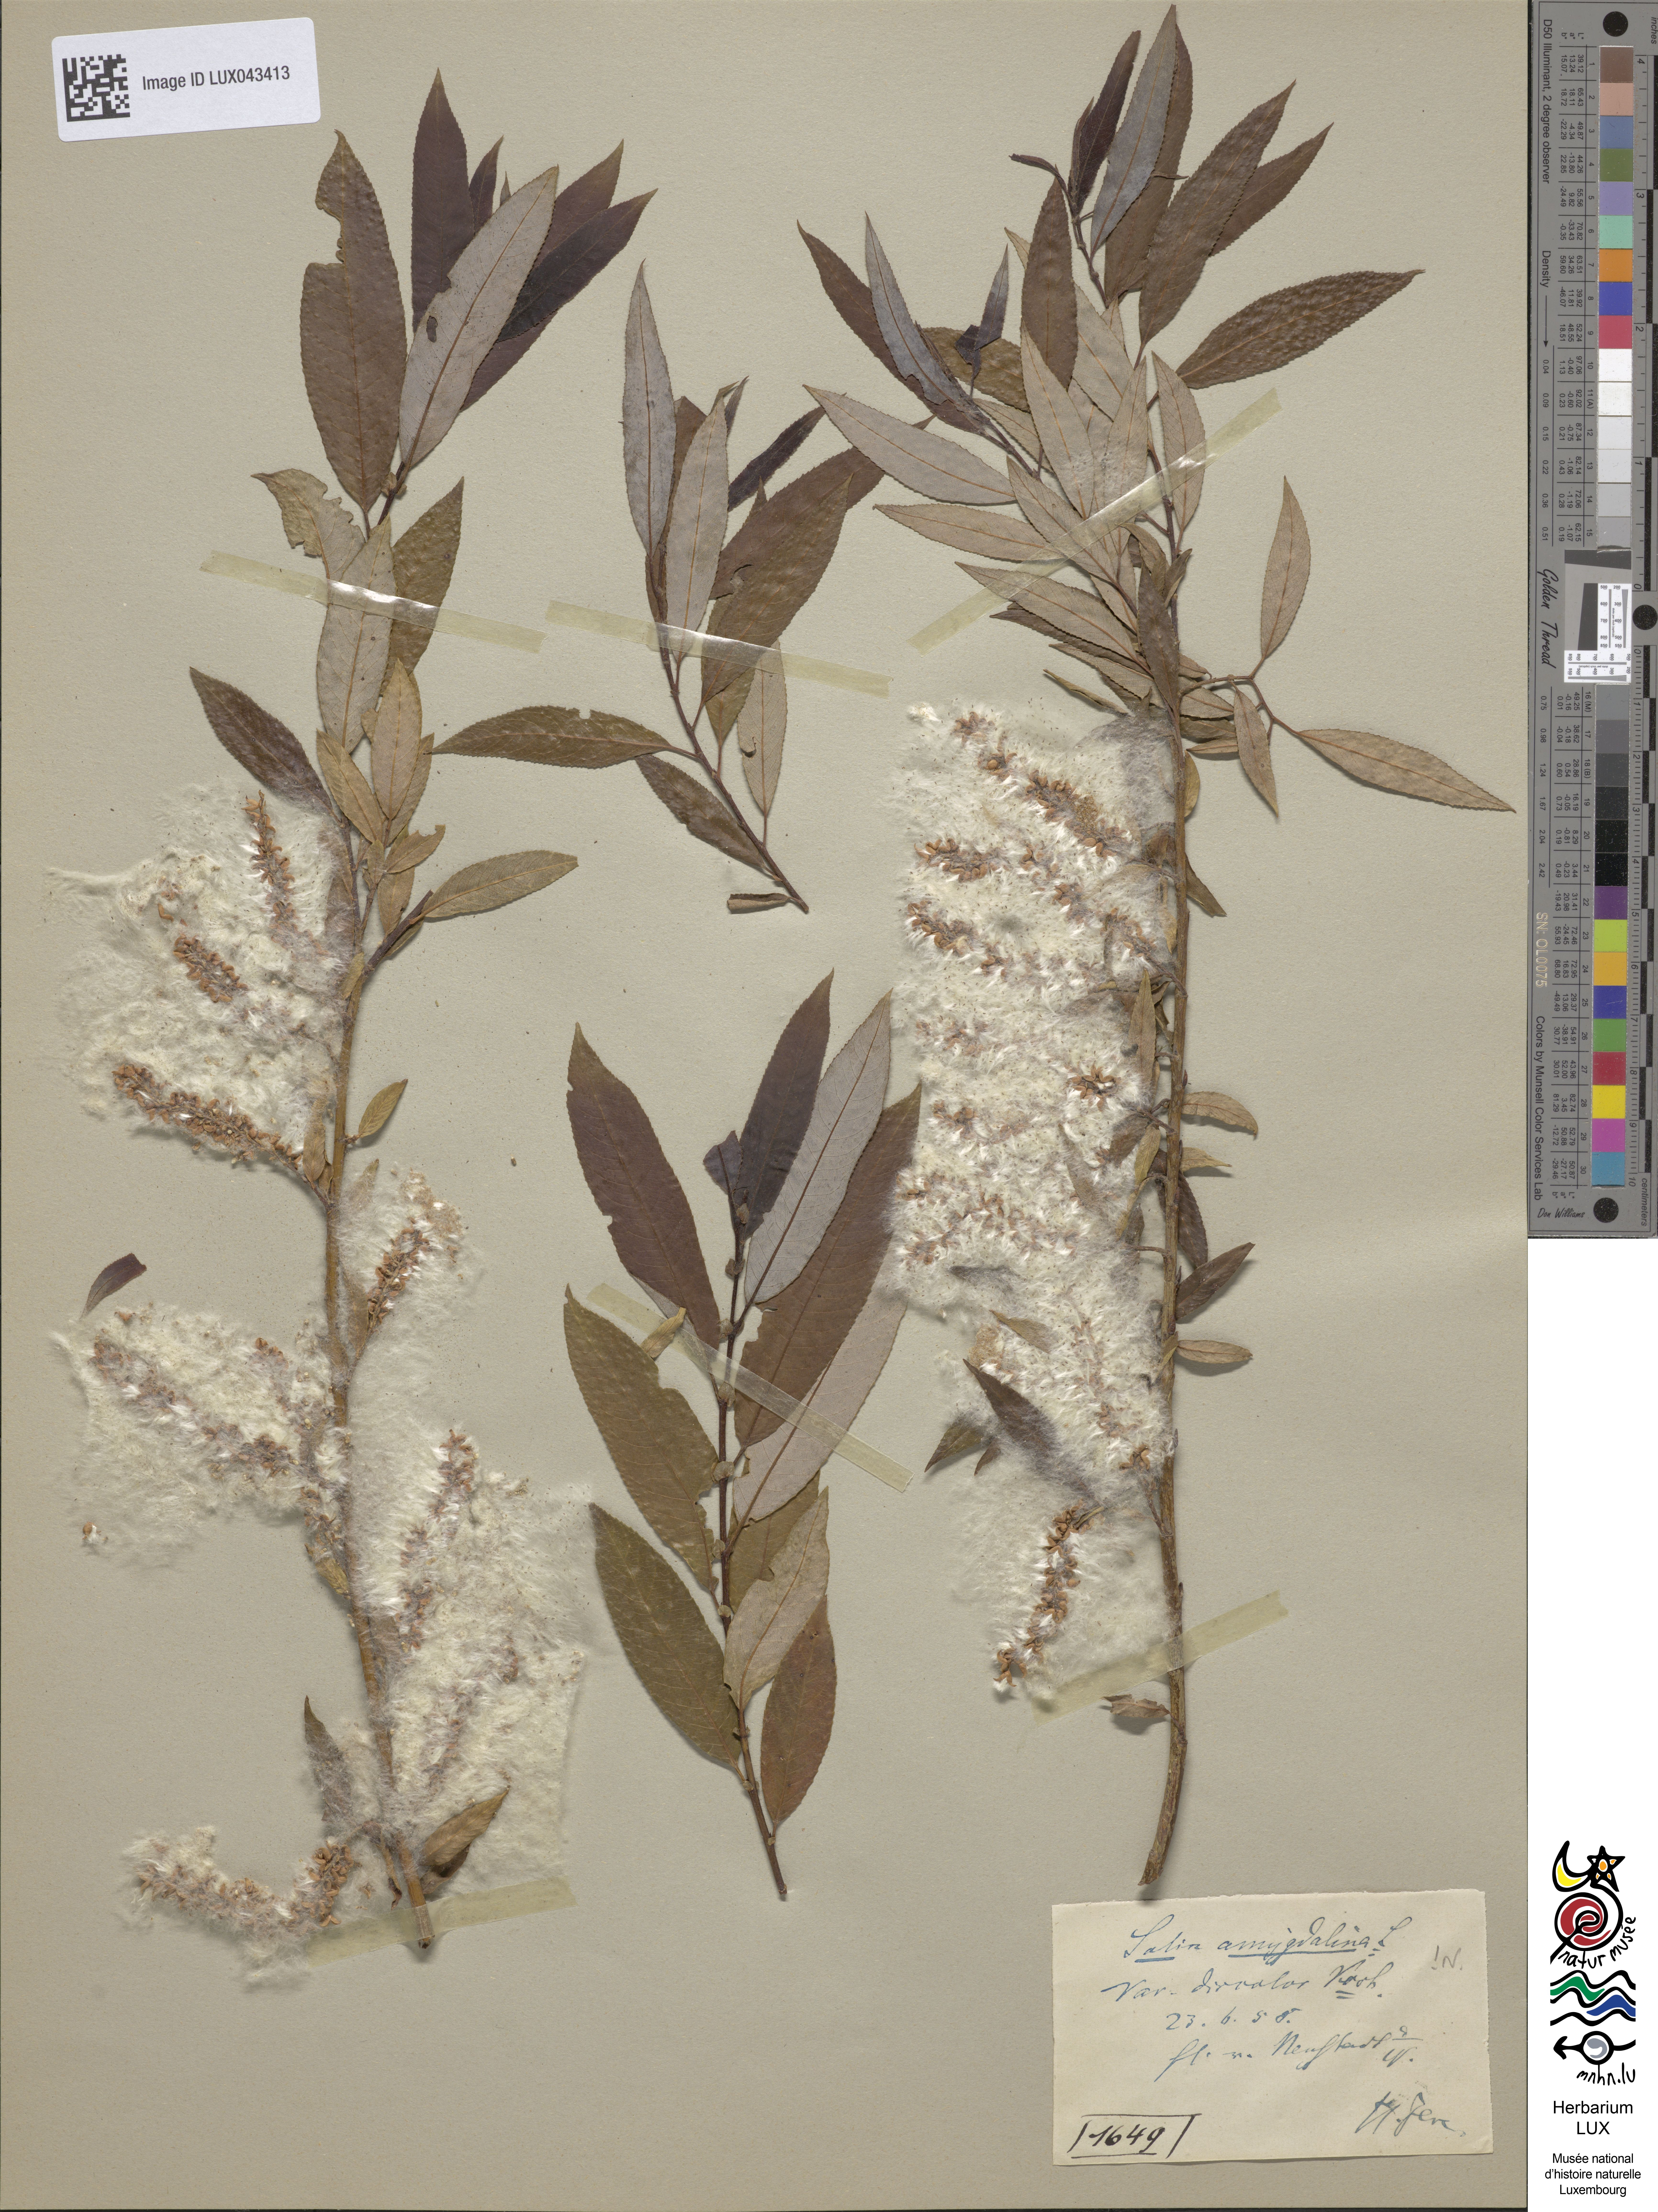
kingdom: Plantae
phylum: Tracheophyta
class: Magnoliopsida
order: Malpighiales
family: Salicaceae
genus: Salix
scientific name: Salix triandra
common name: Almond willow
